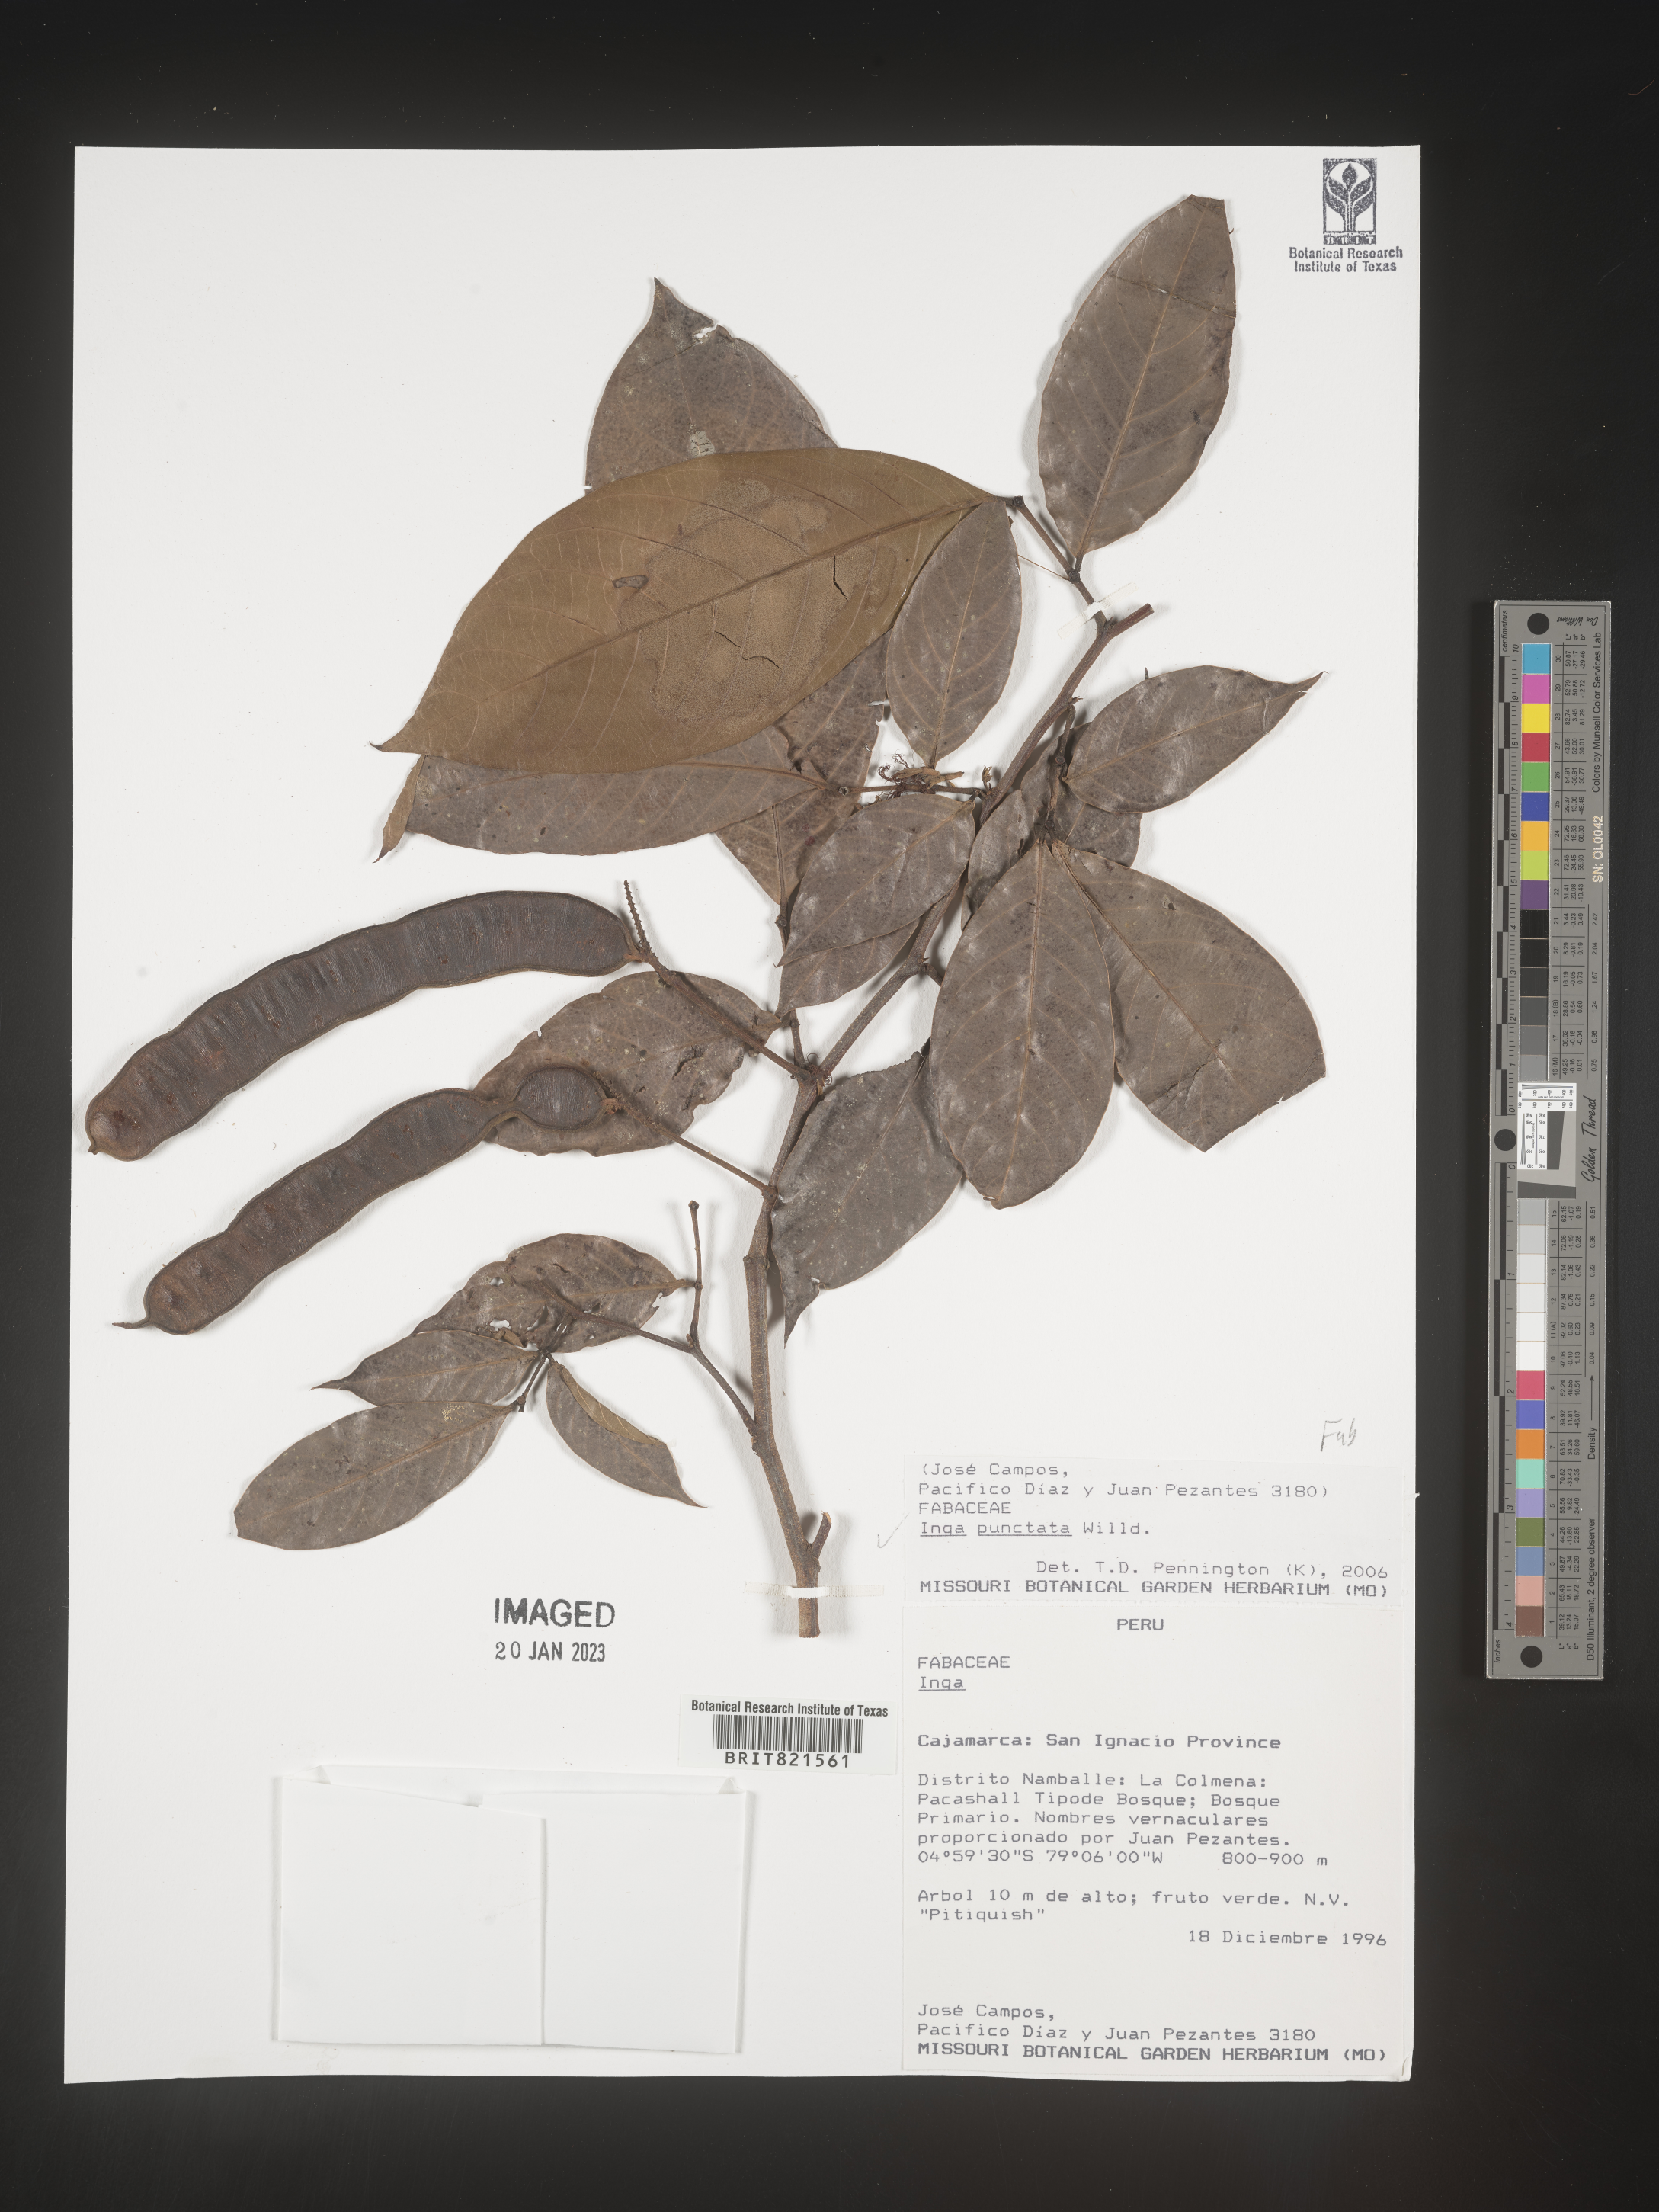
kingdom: Plantae
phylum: Tracheophyta
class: Magnoliopsida
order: Fabales
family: Fabaceae
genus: Inga
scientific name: Inga
